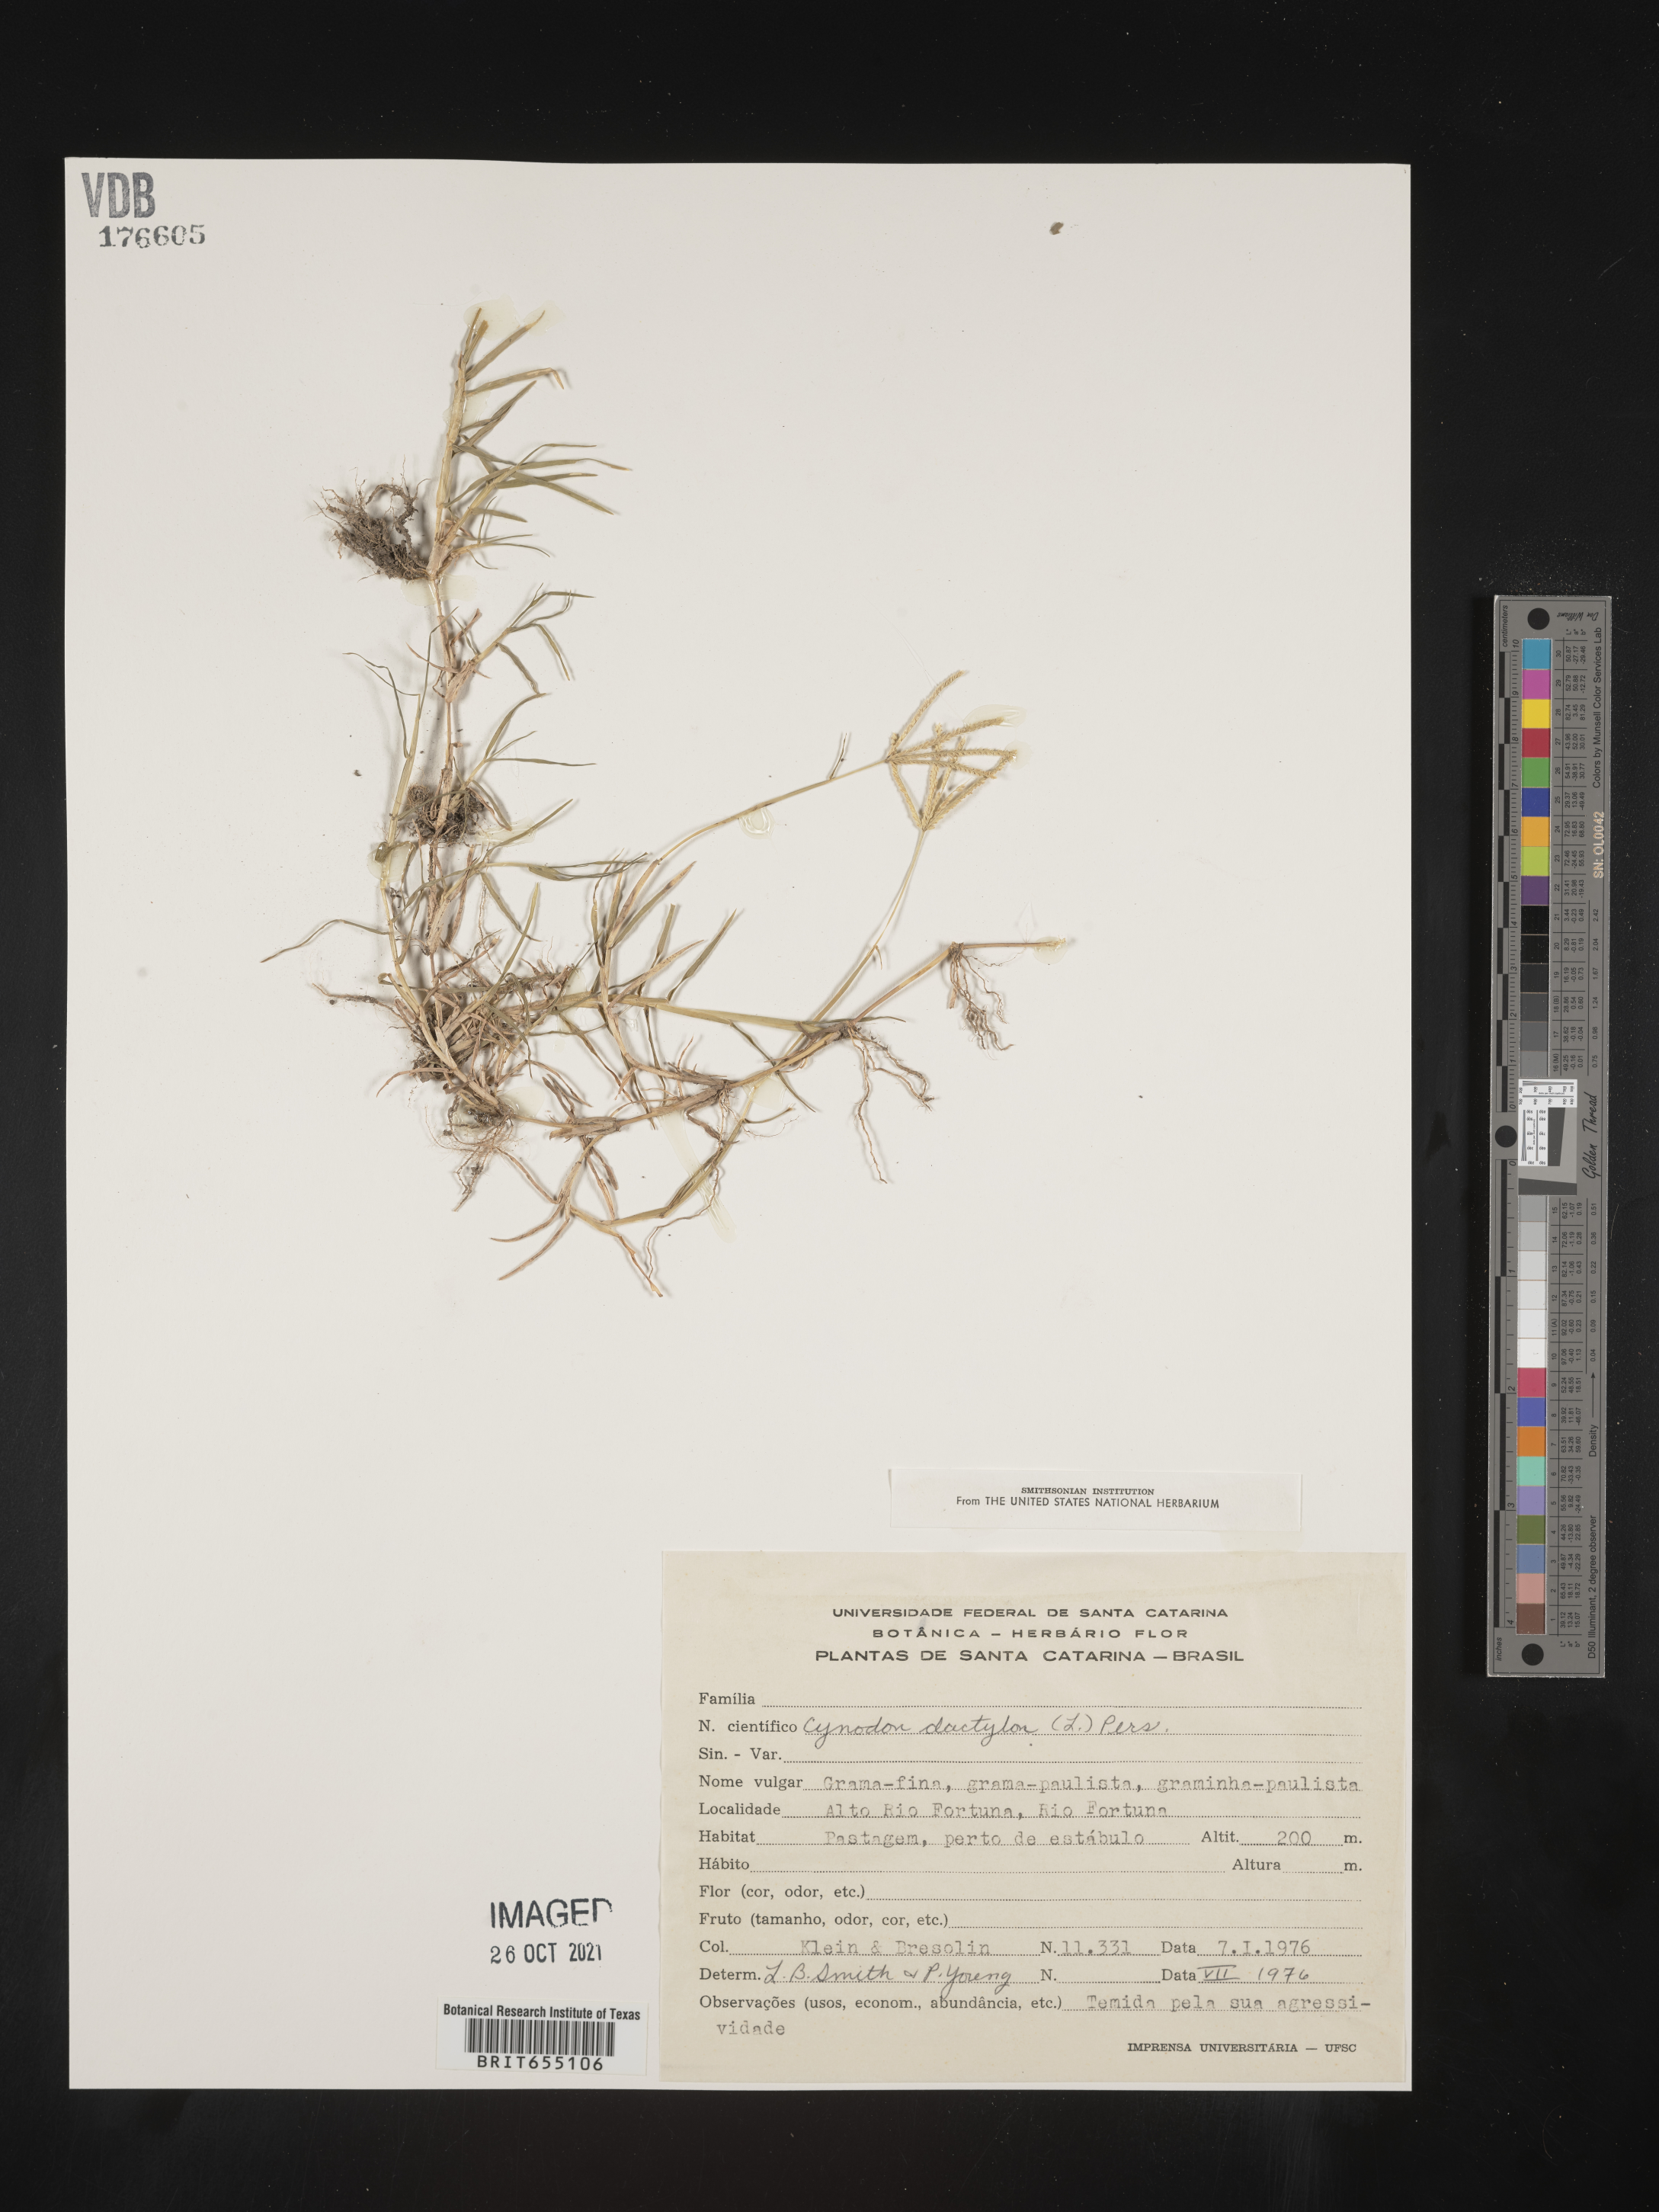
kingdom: Plantae
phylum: Tracheophyta
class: Liliopsida
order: Poales
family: Poaceae
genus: Cynodon
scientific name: Cynodon
